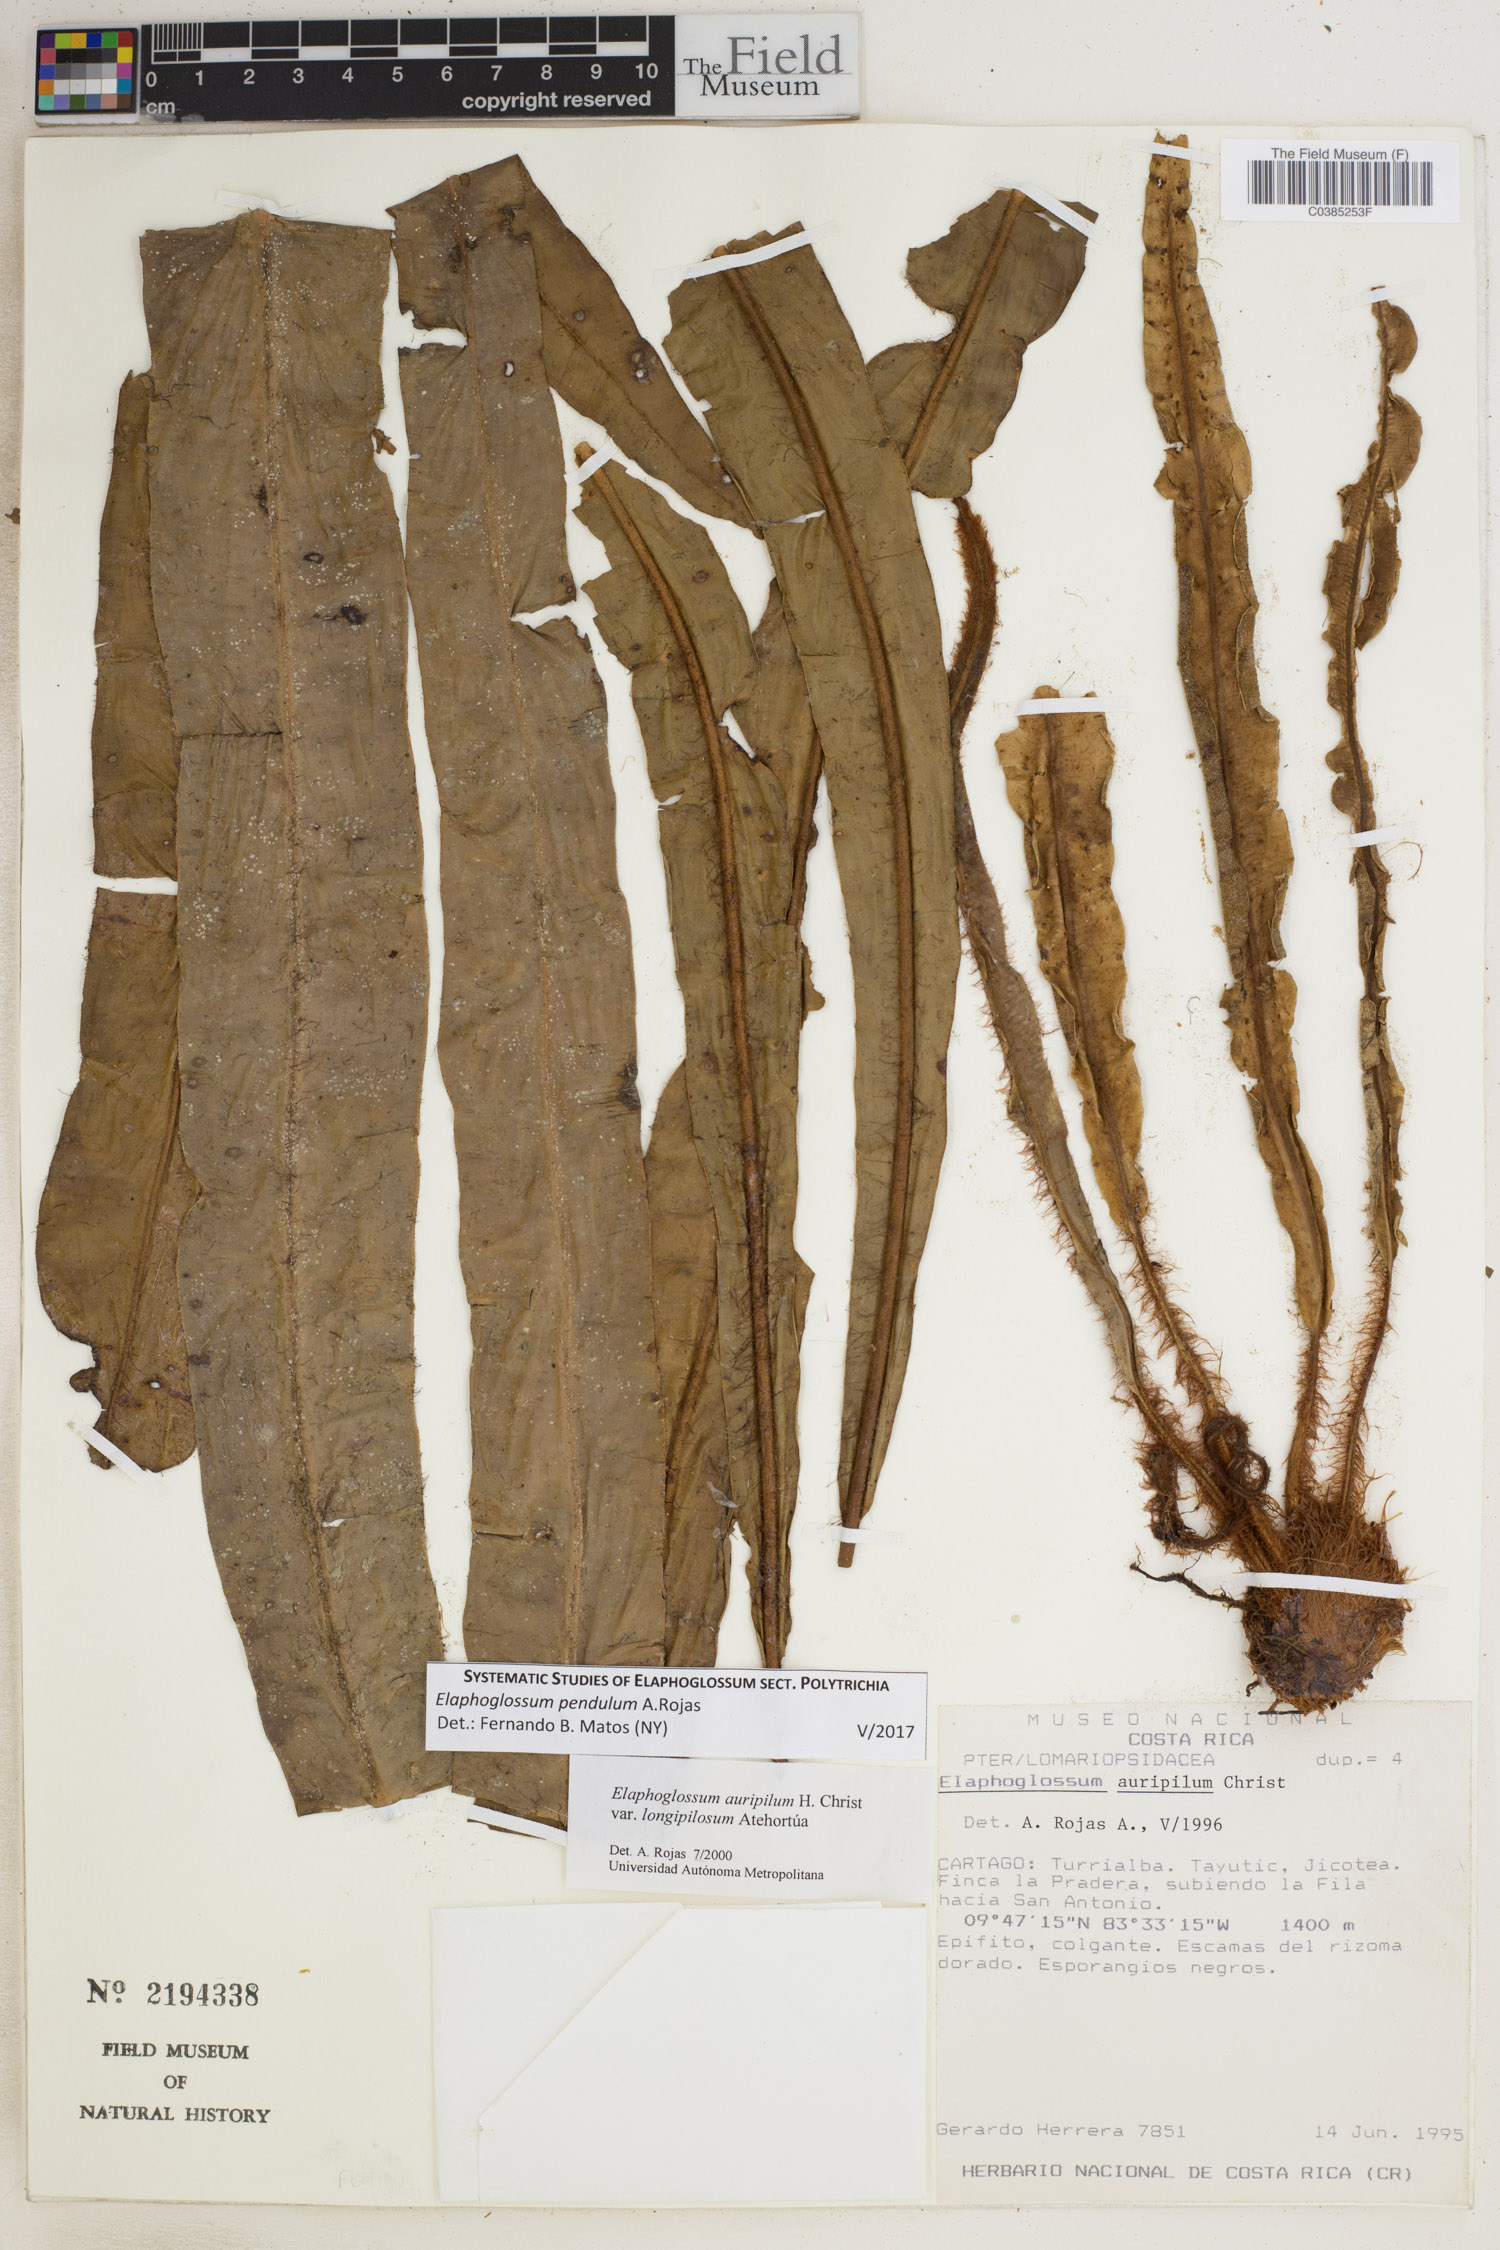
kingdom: Plantae
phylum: Tracheophyta
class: Polypodiopsida
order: Polypodiales
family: Dryopteridaceae
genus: Elaphoglossum
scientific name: Elaphoglossum pendulum
